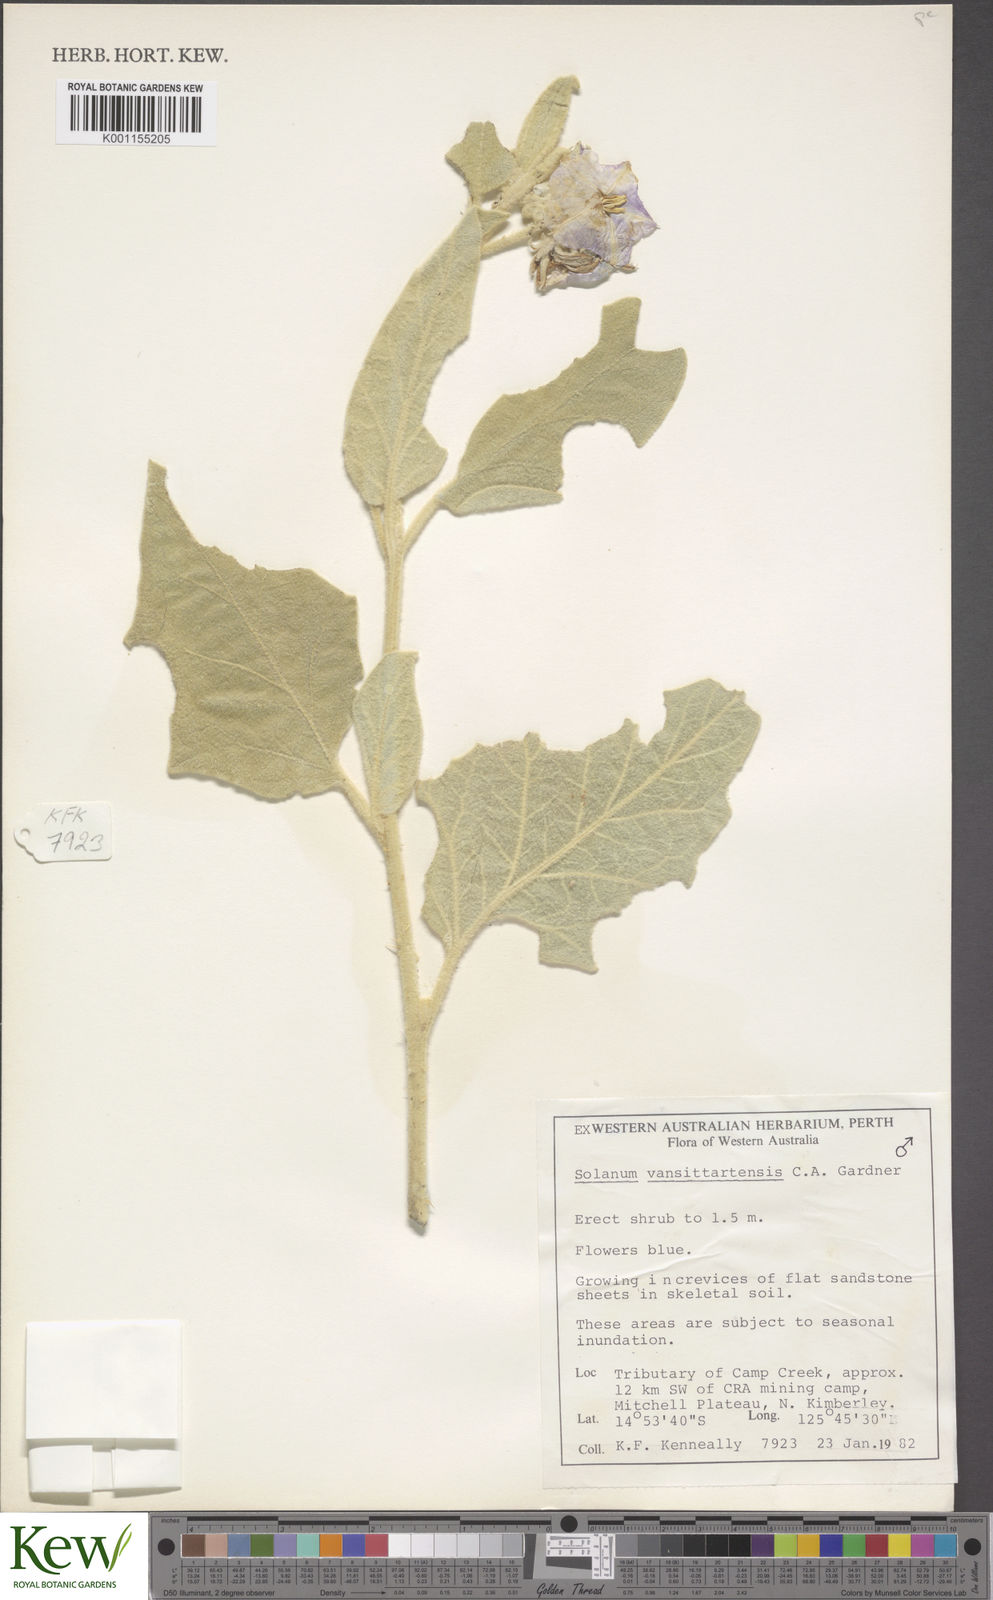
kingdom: Plantae
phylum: Tracheophyta
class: Magnoliopsida
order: Solanales
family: Solanaceae
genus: Solanum
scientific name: Solanum vansittartense
